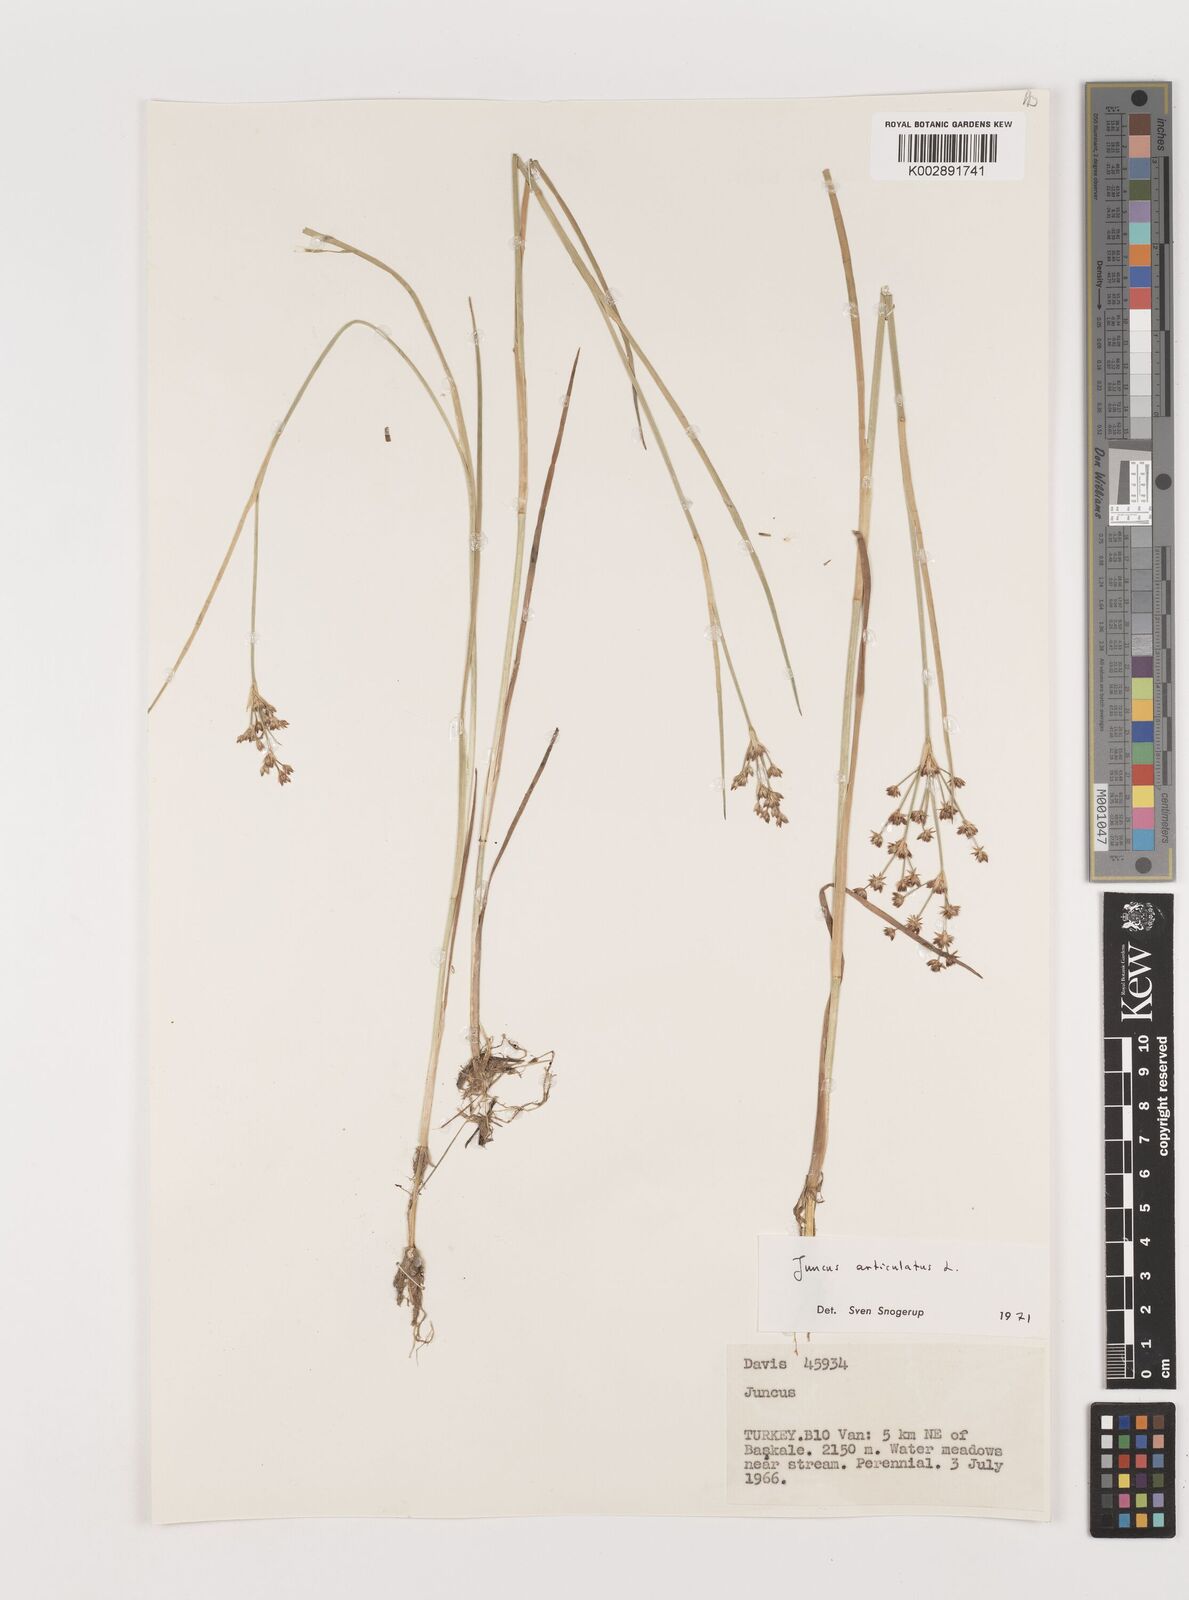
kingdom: Plantae
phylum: Tracheophyta
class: Liliopsida
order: Poales
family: Juncaceae
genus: Juncus
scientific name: Juncus articulatus
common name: Jointed rush
